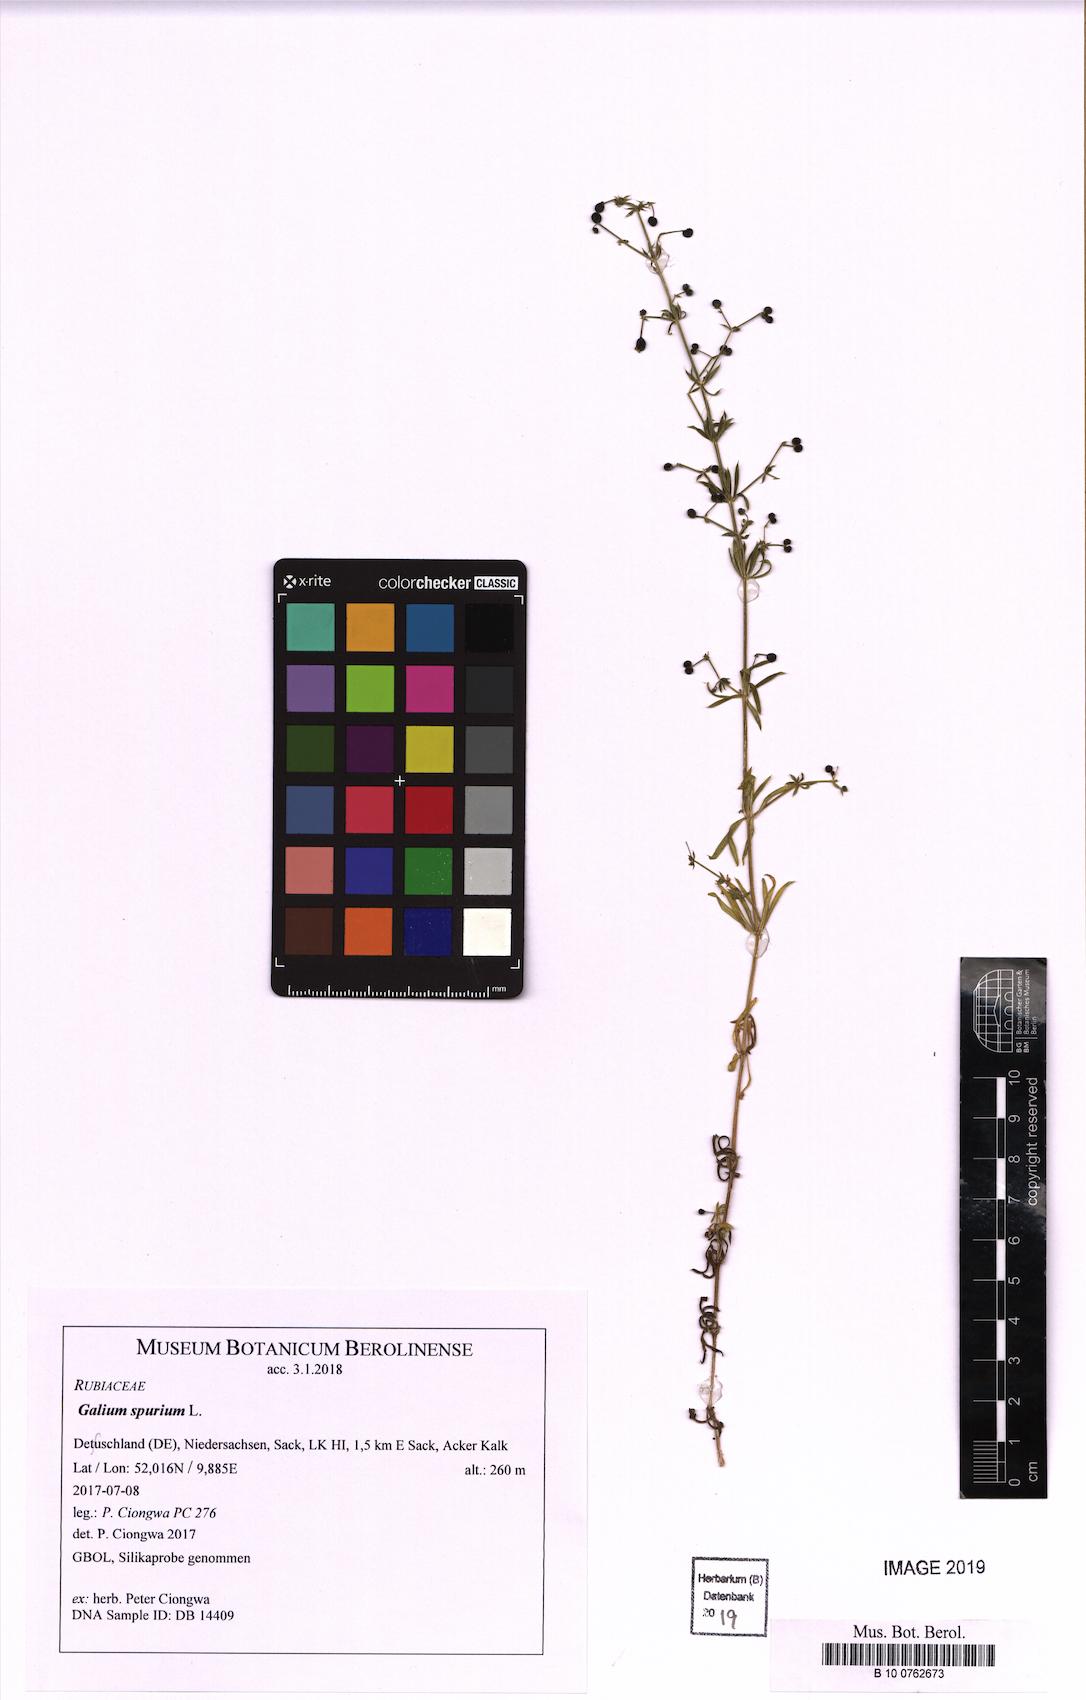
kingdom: Plantae
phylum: Tracheophyta
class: Magnoliopsida
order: Gentianales
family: Rubiaceae
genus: Galium
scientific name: Galium spurium
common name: False cleavers
